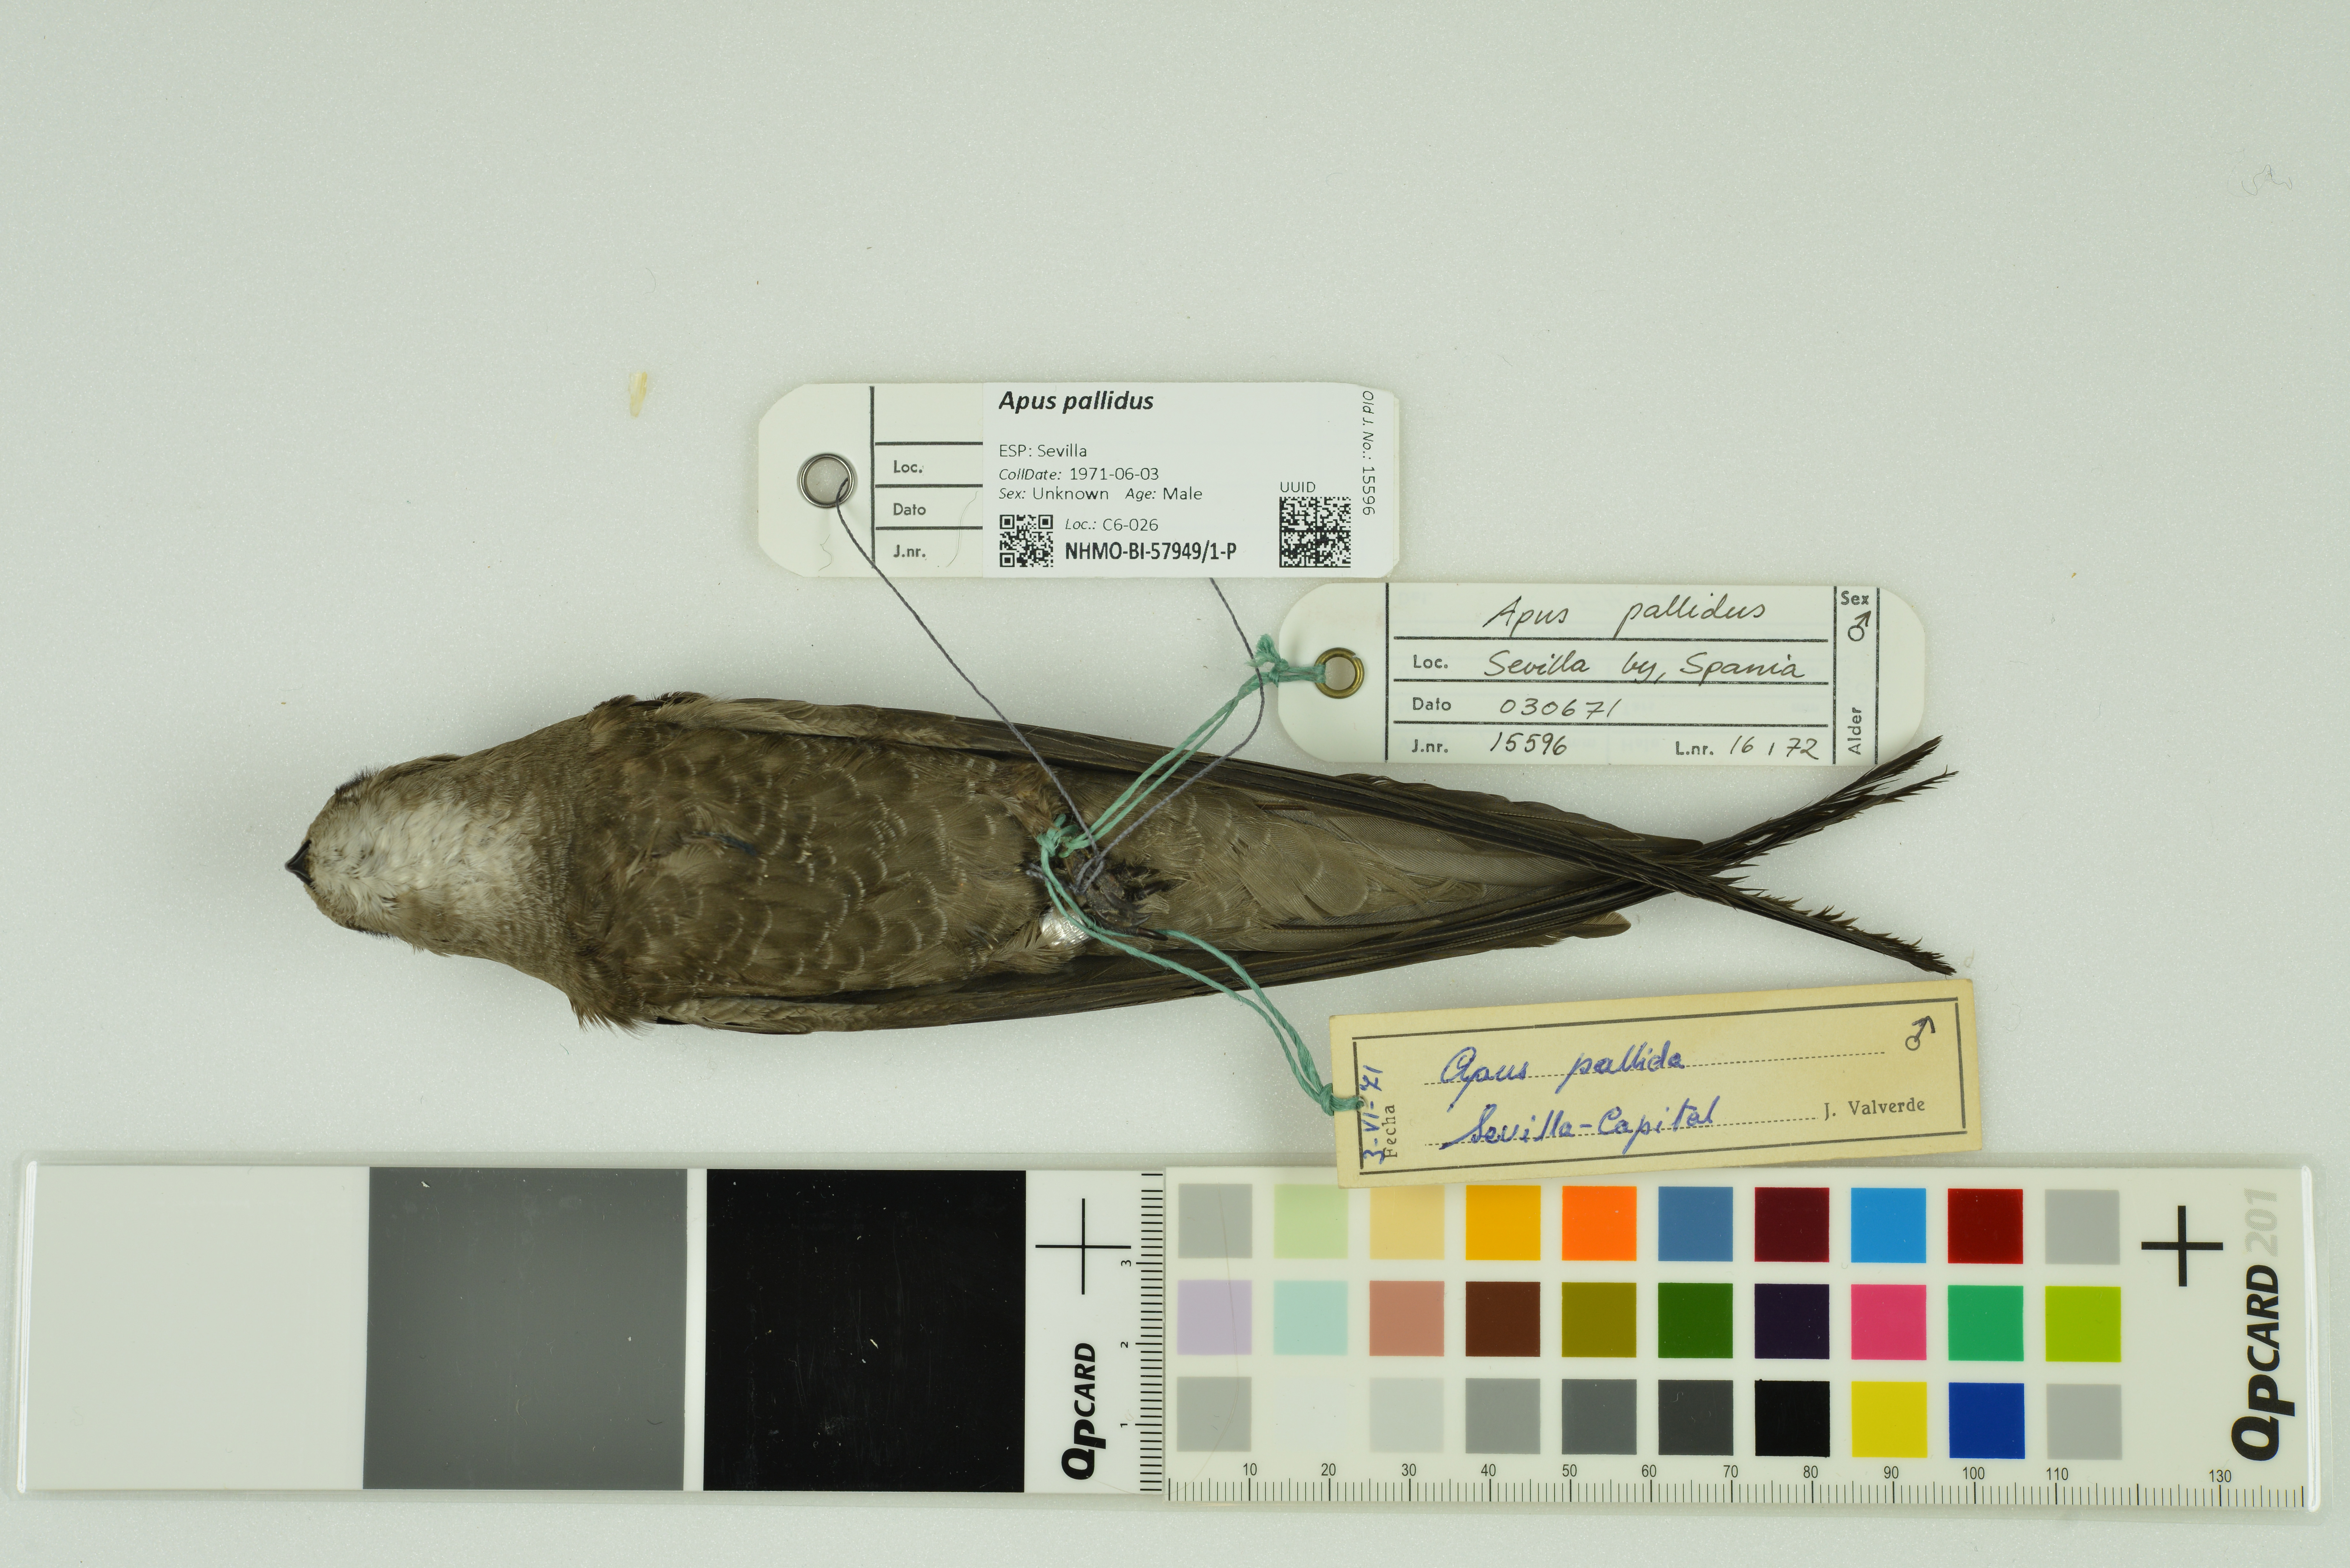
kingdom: Animalia
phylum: Chordata
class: Aves
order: Apodiformes
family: Apodidae
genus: Apus
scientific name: Apus pallidus
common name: Pallid swift
